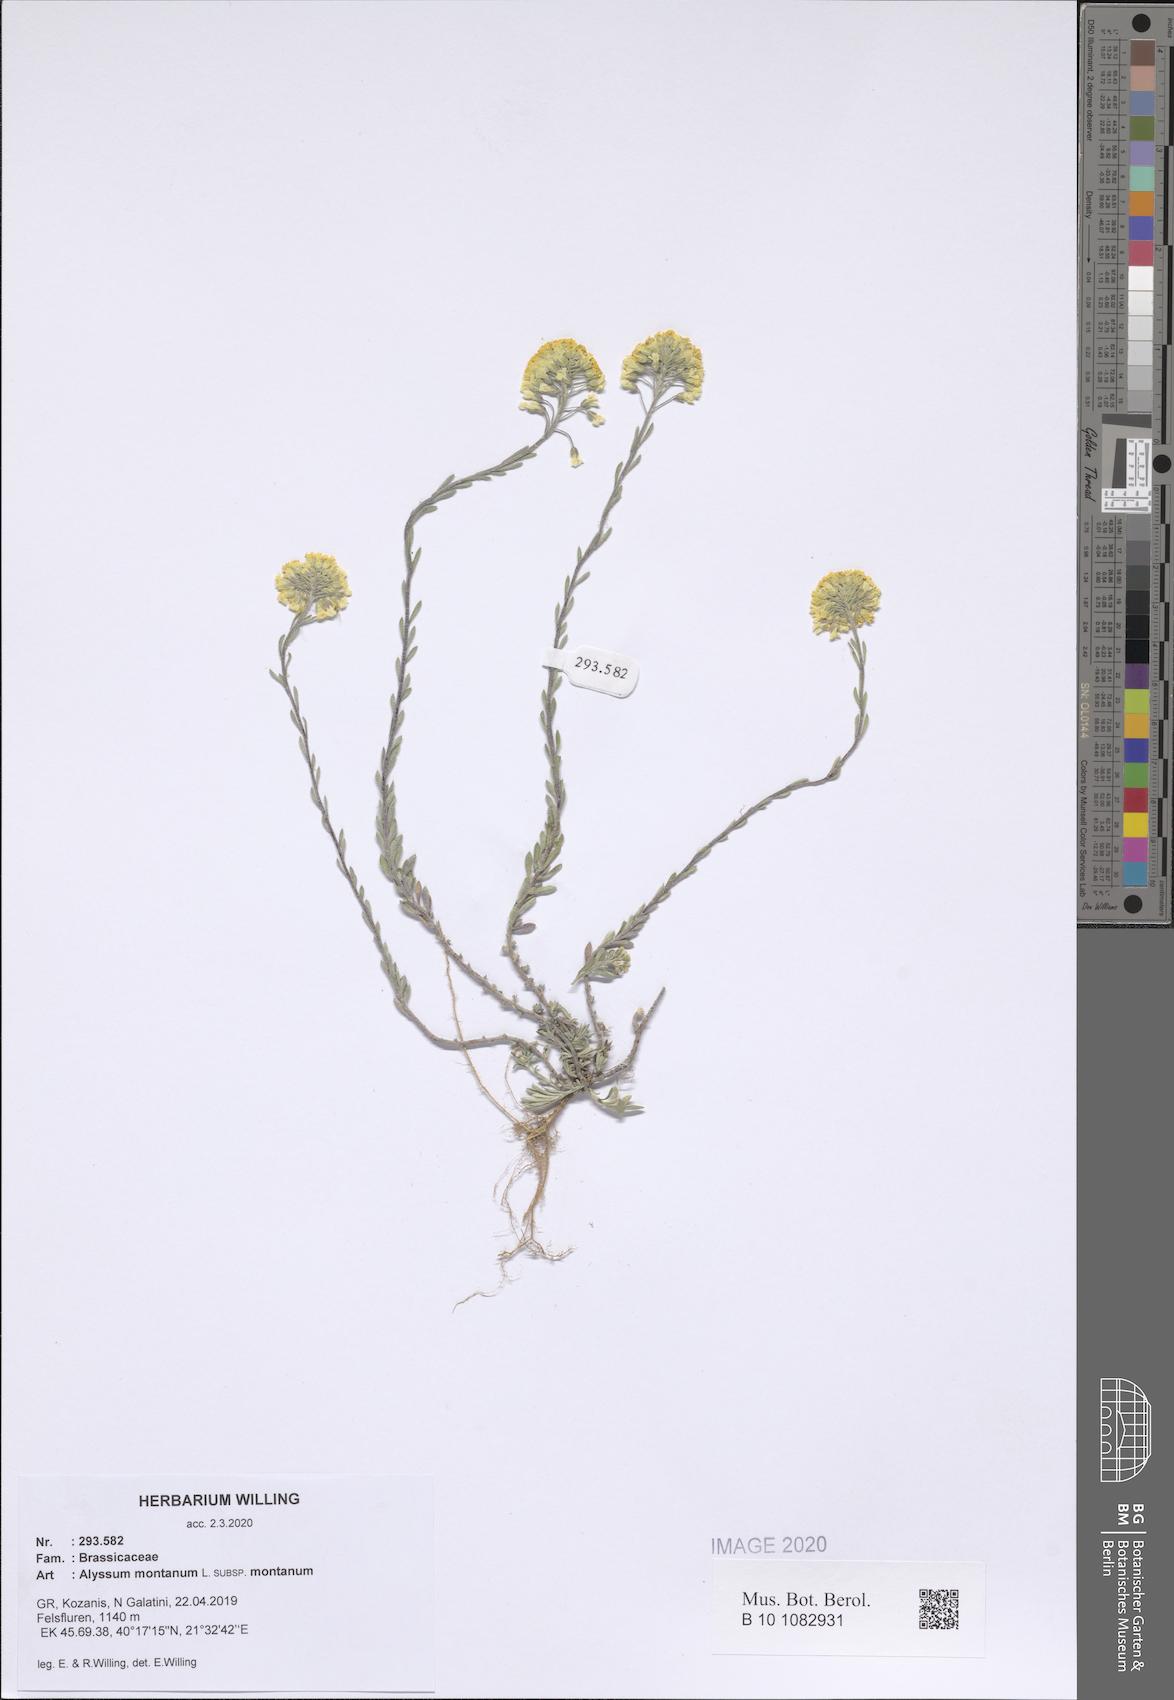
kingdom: Plantae
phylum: Tracheophyta
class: Magnoliopsida
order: Brassicales
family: Brassicaceae
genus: Alyssum
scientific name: Alyssum montanum
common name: Mountain alison
